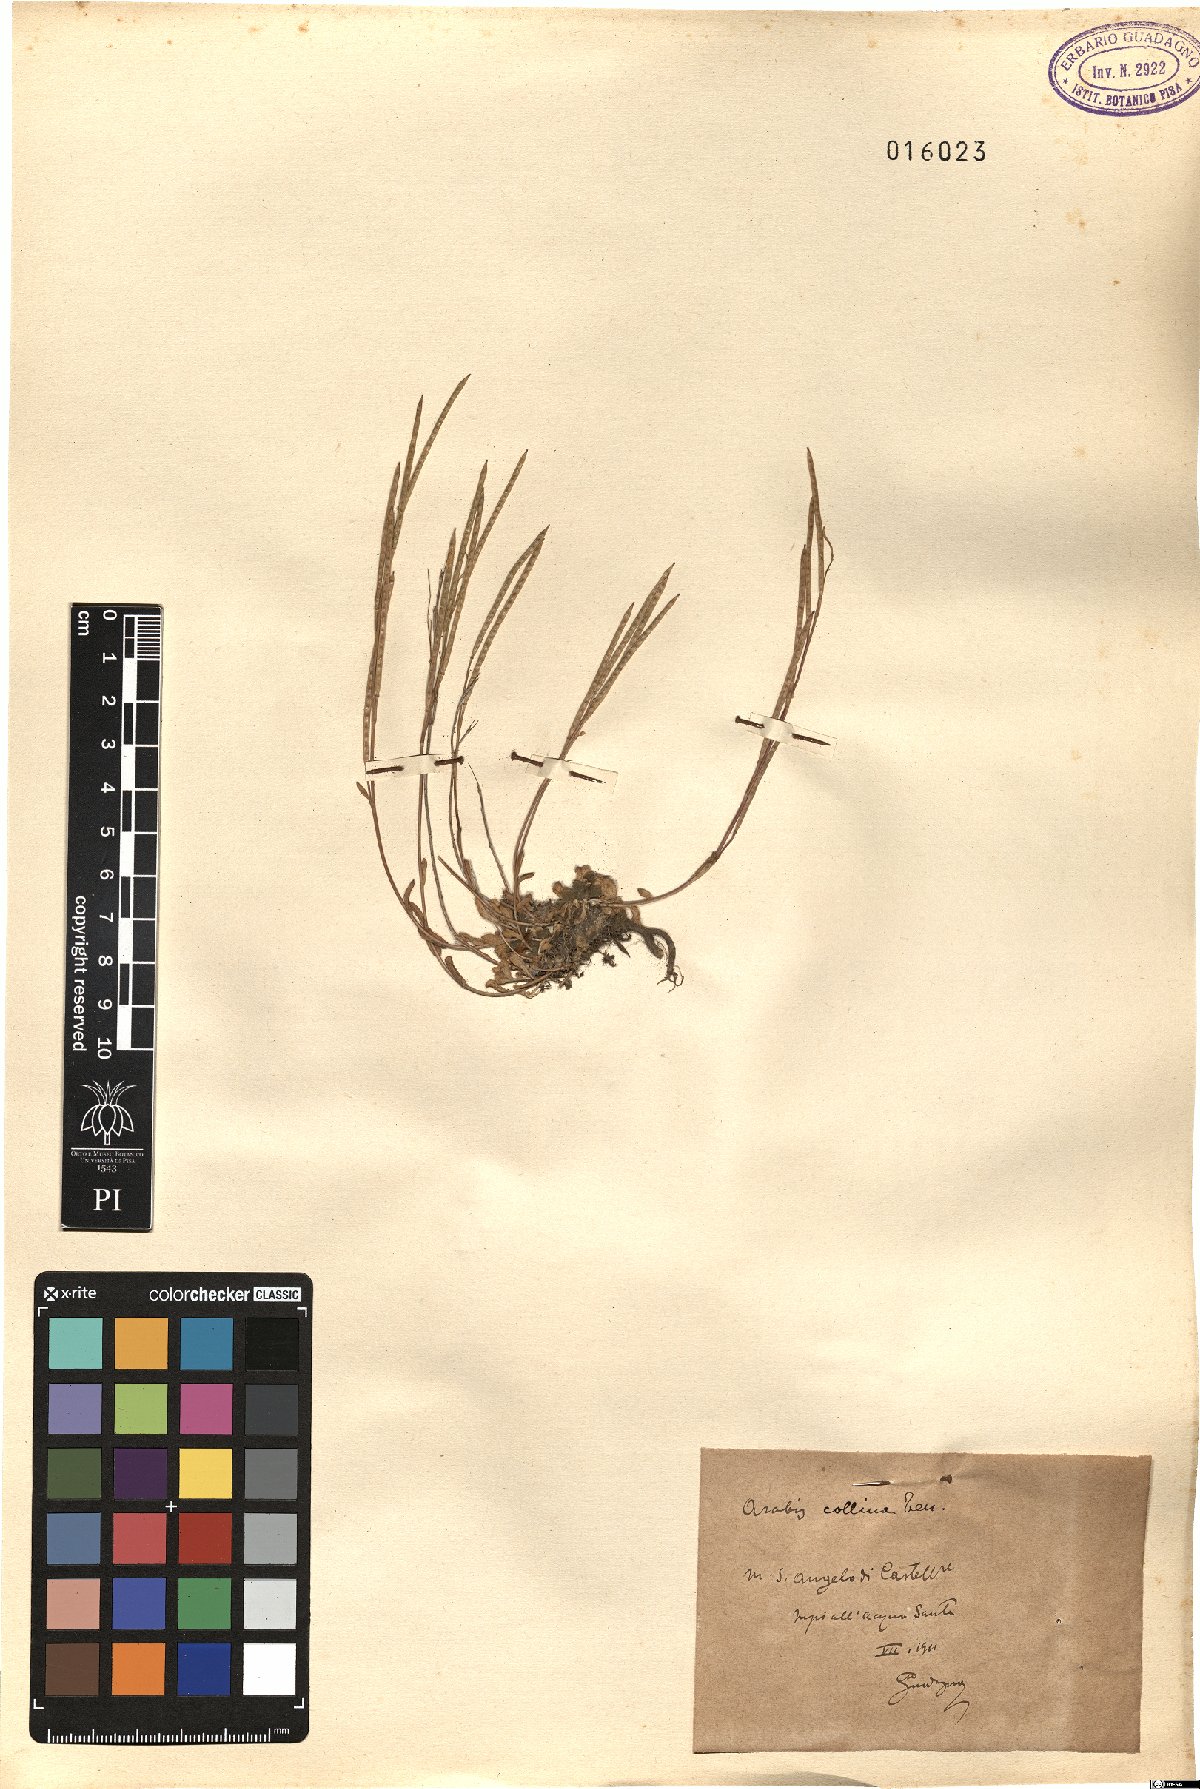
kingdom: Plantae
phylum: Tracheophyta
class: Magnoliopsida
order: Brassicales
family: Brassicaceae
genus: Arabis
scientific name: Arabis collina
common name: Rosy cress
